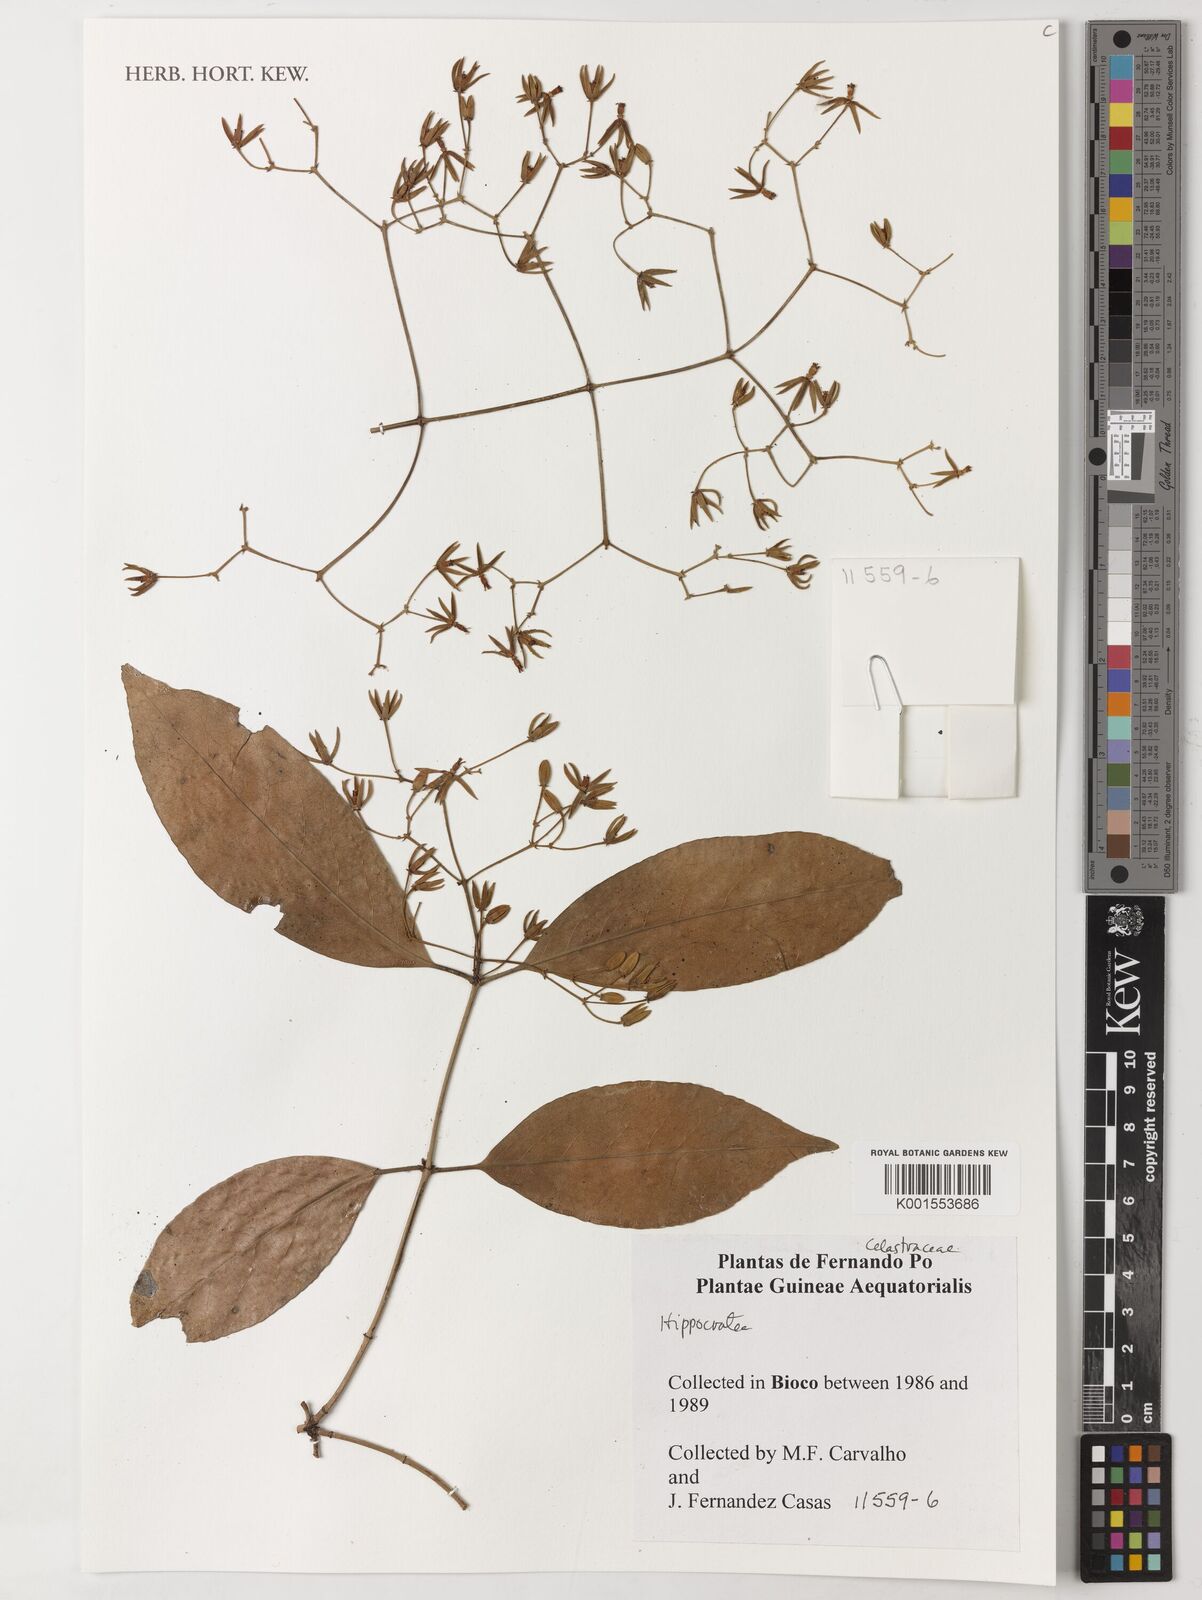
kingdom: Plantae
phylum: Tracheophyta
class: Magnoliopsida
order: Celastrales
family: Celastraceae
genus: Hippocratea
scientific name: Hippocratea
